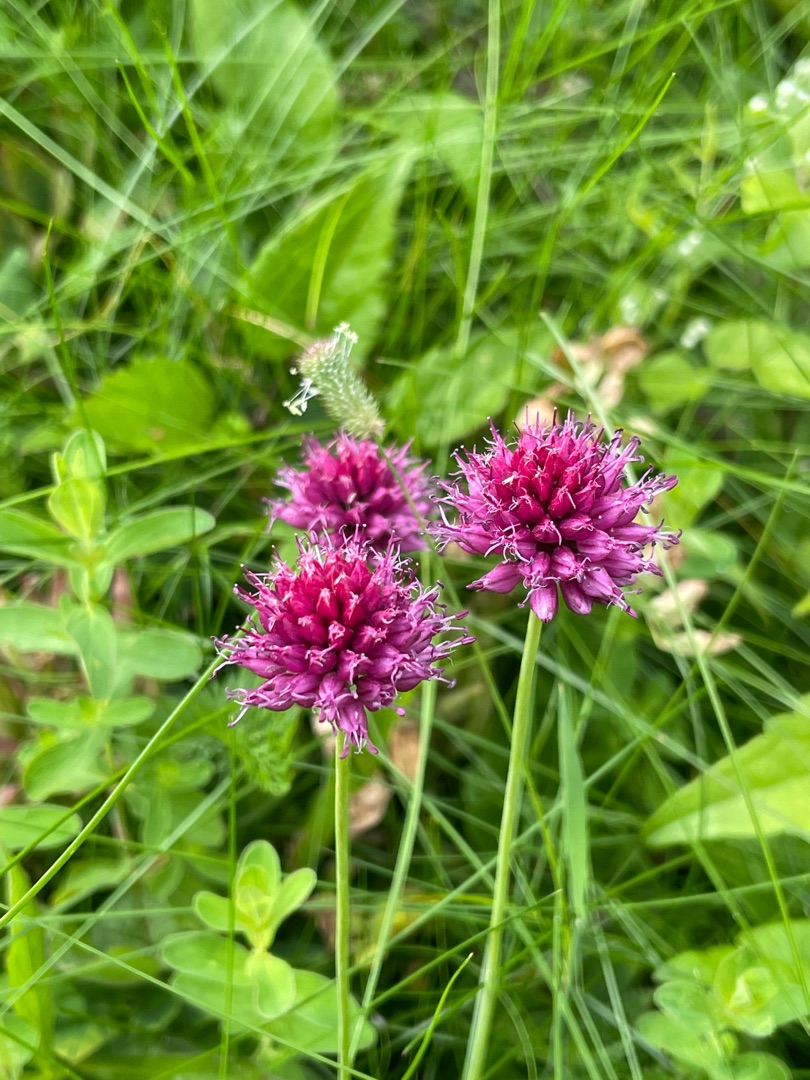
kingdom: Plantae
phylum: Tracheophyta
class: Liliopsida
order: Asparagales
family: Amaryllidaceae
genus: Allium
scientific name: Allium sphaerocephalon
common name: Middelhavs-prydløg
